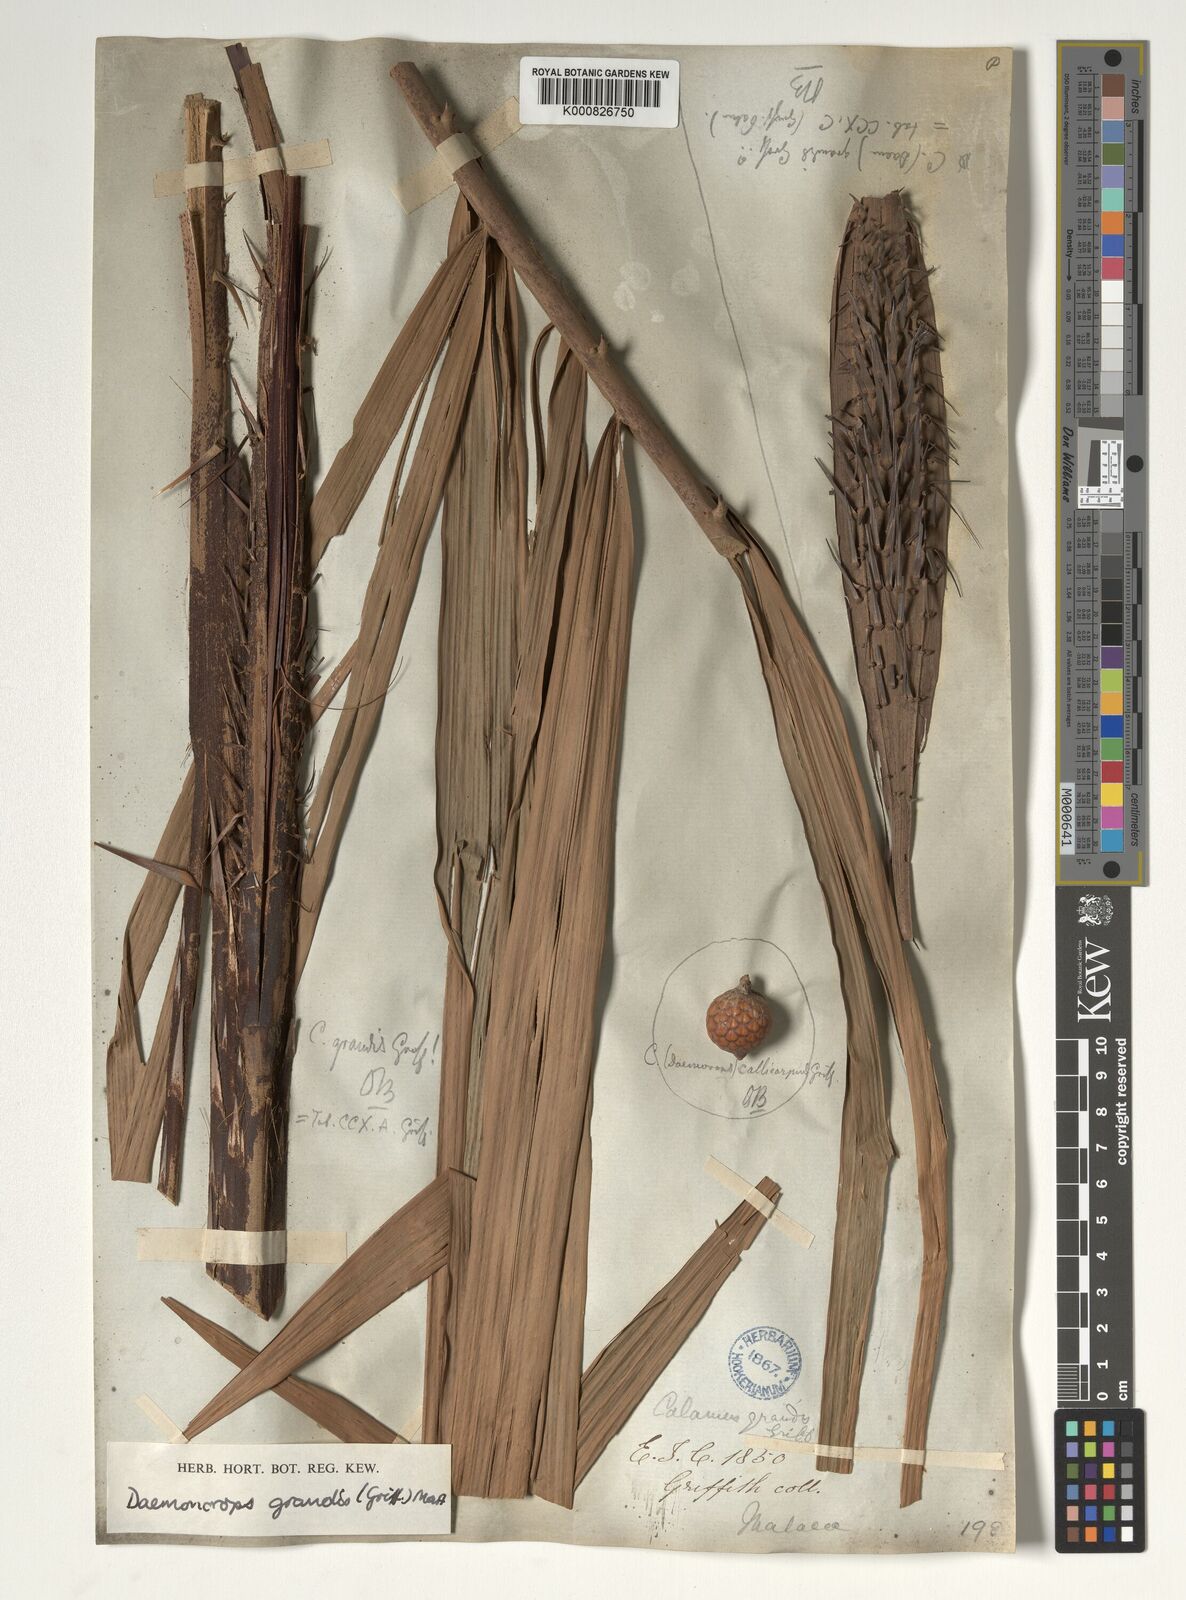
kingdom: Plantae
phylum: Tracheophyta
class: Liliopsida
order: Arecales
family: Arecaceae
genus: Calamus
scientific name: Calamus melanochaetes
